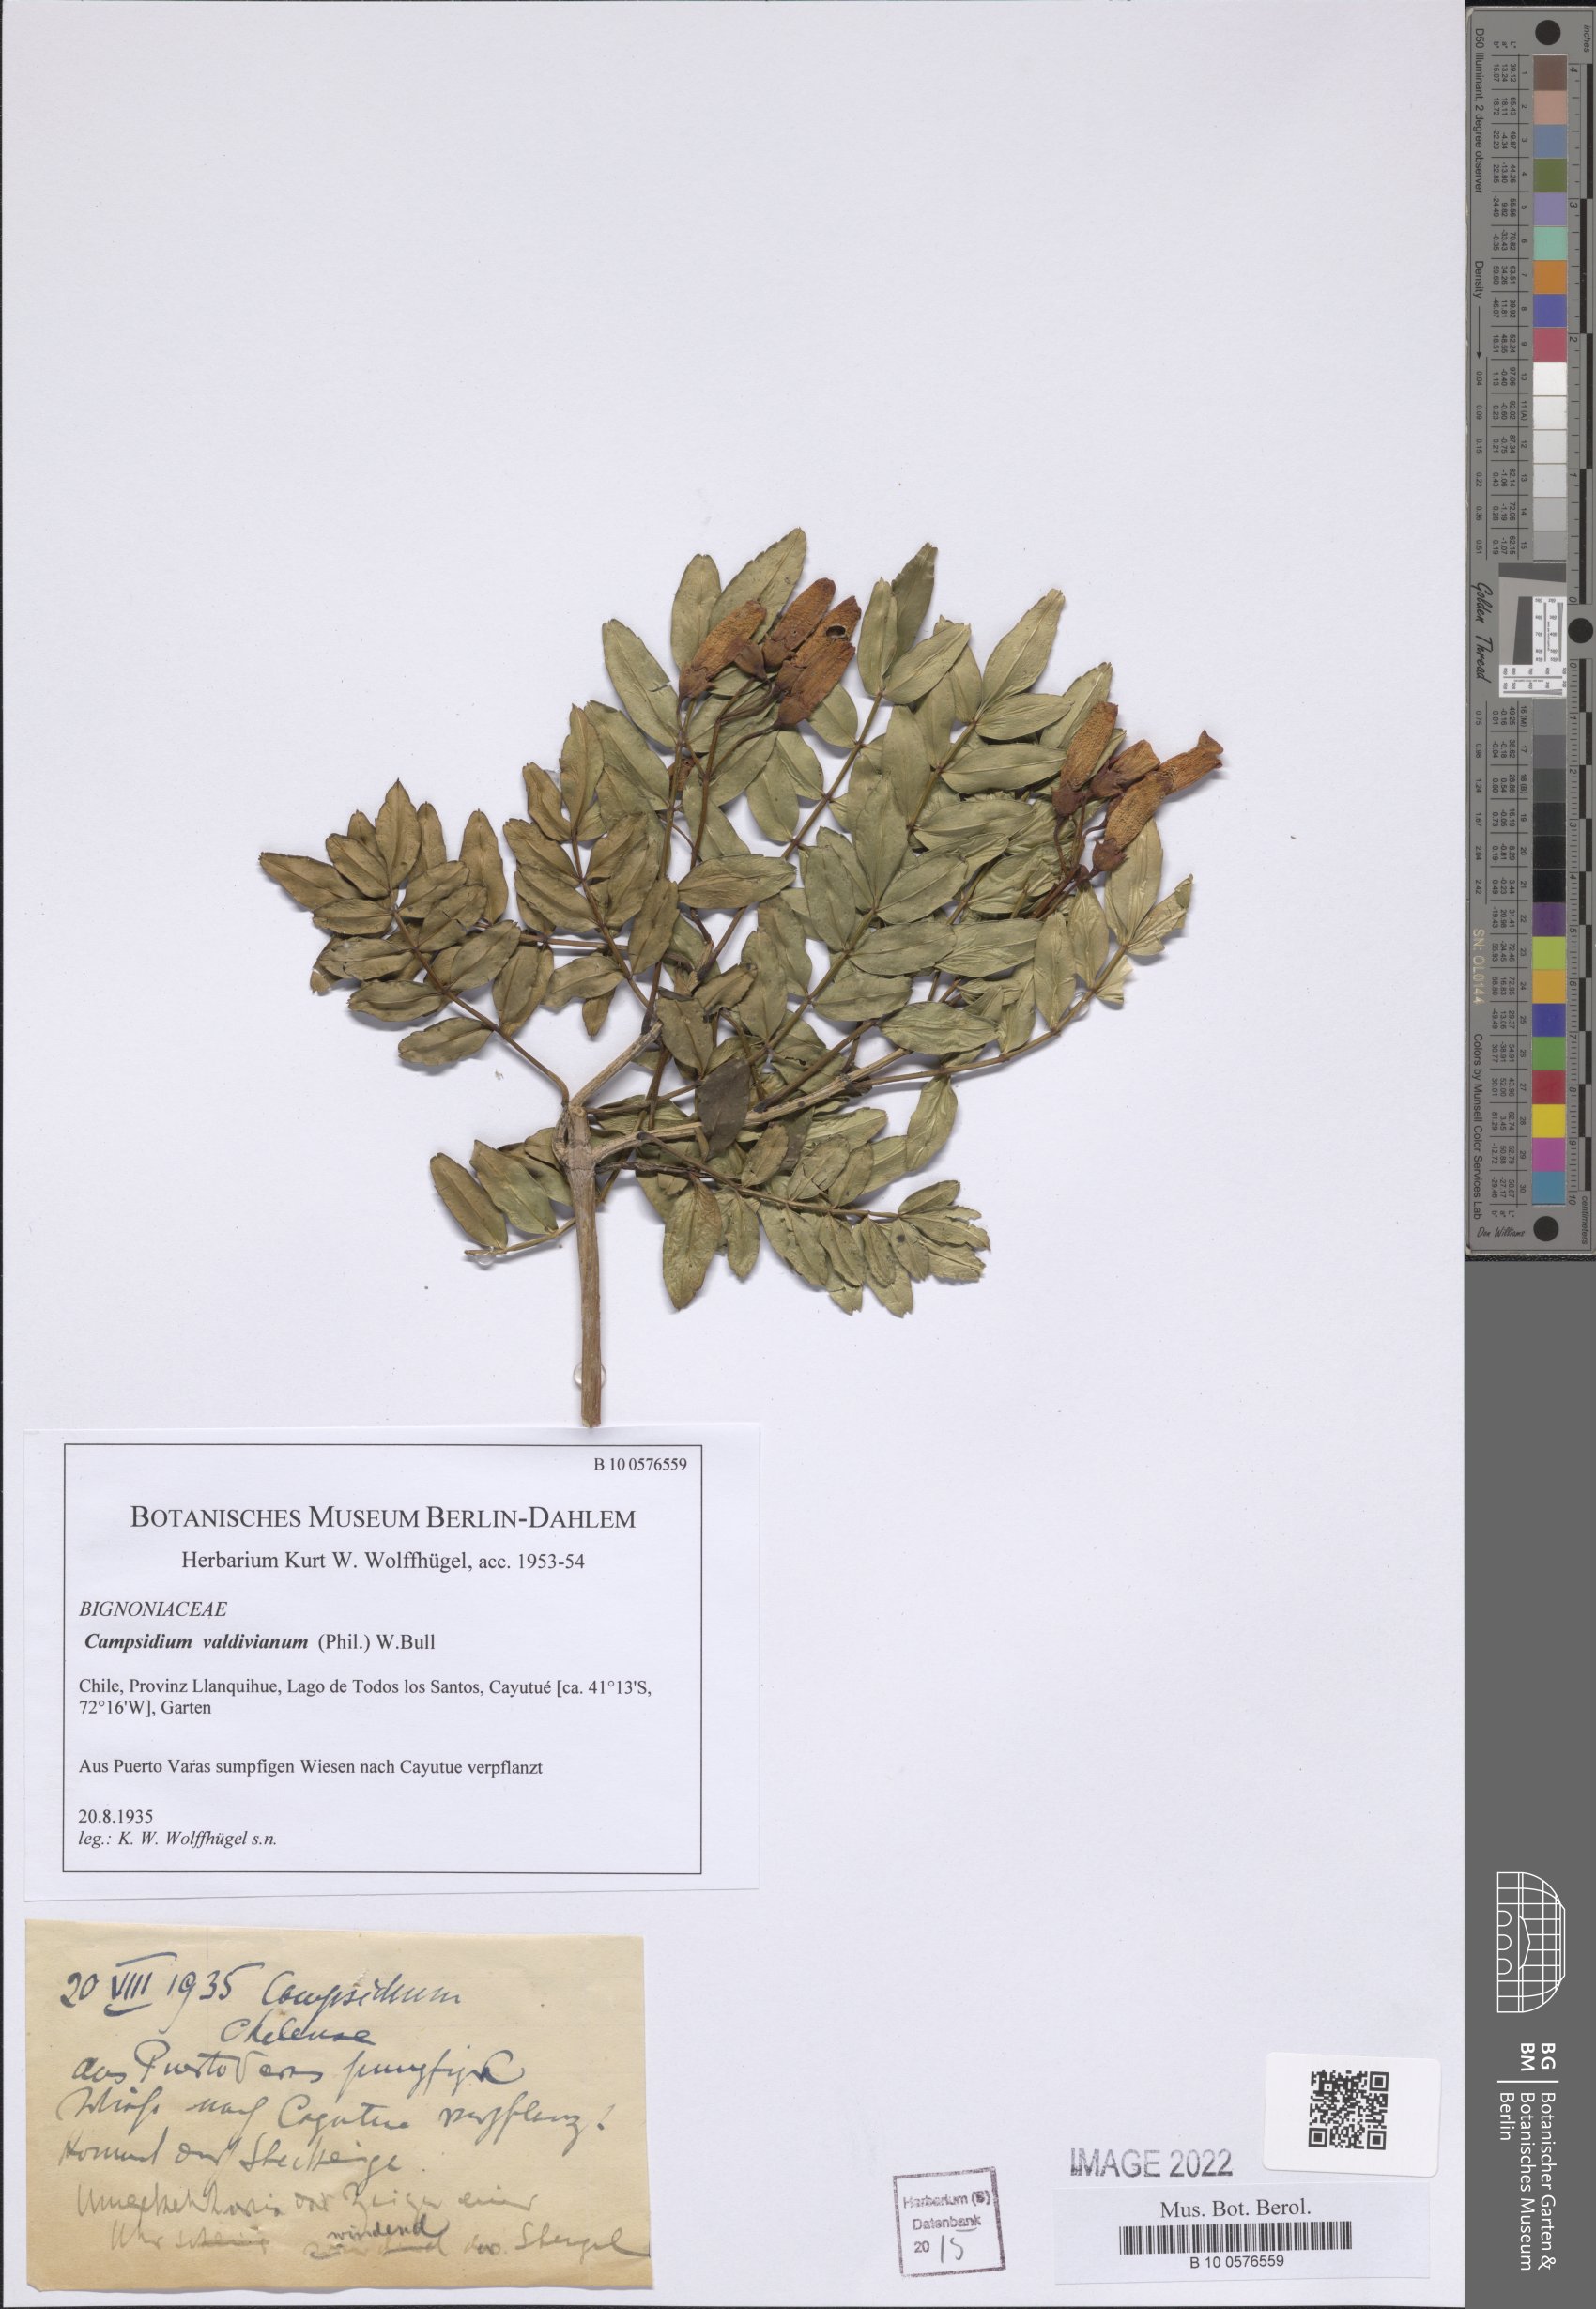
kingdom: Plantae
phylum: Tracheophyta
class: Magnoliopsida
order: Lamiales
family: Bignoniaceae
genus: Campsidium
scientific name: Campsidium valdivianum
